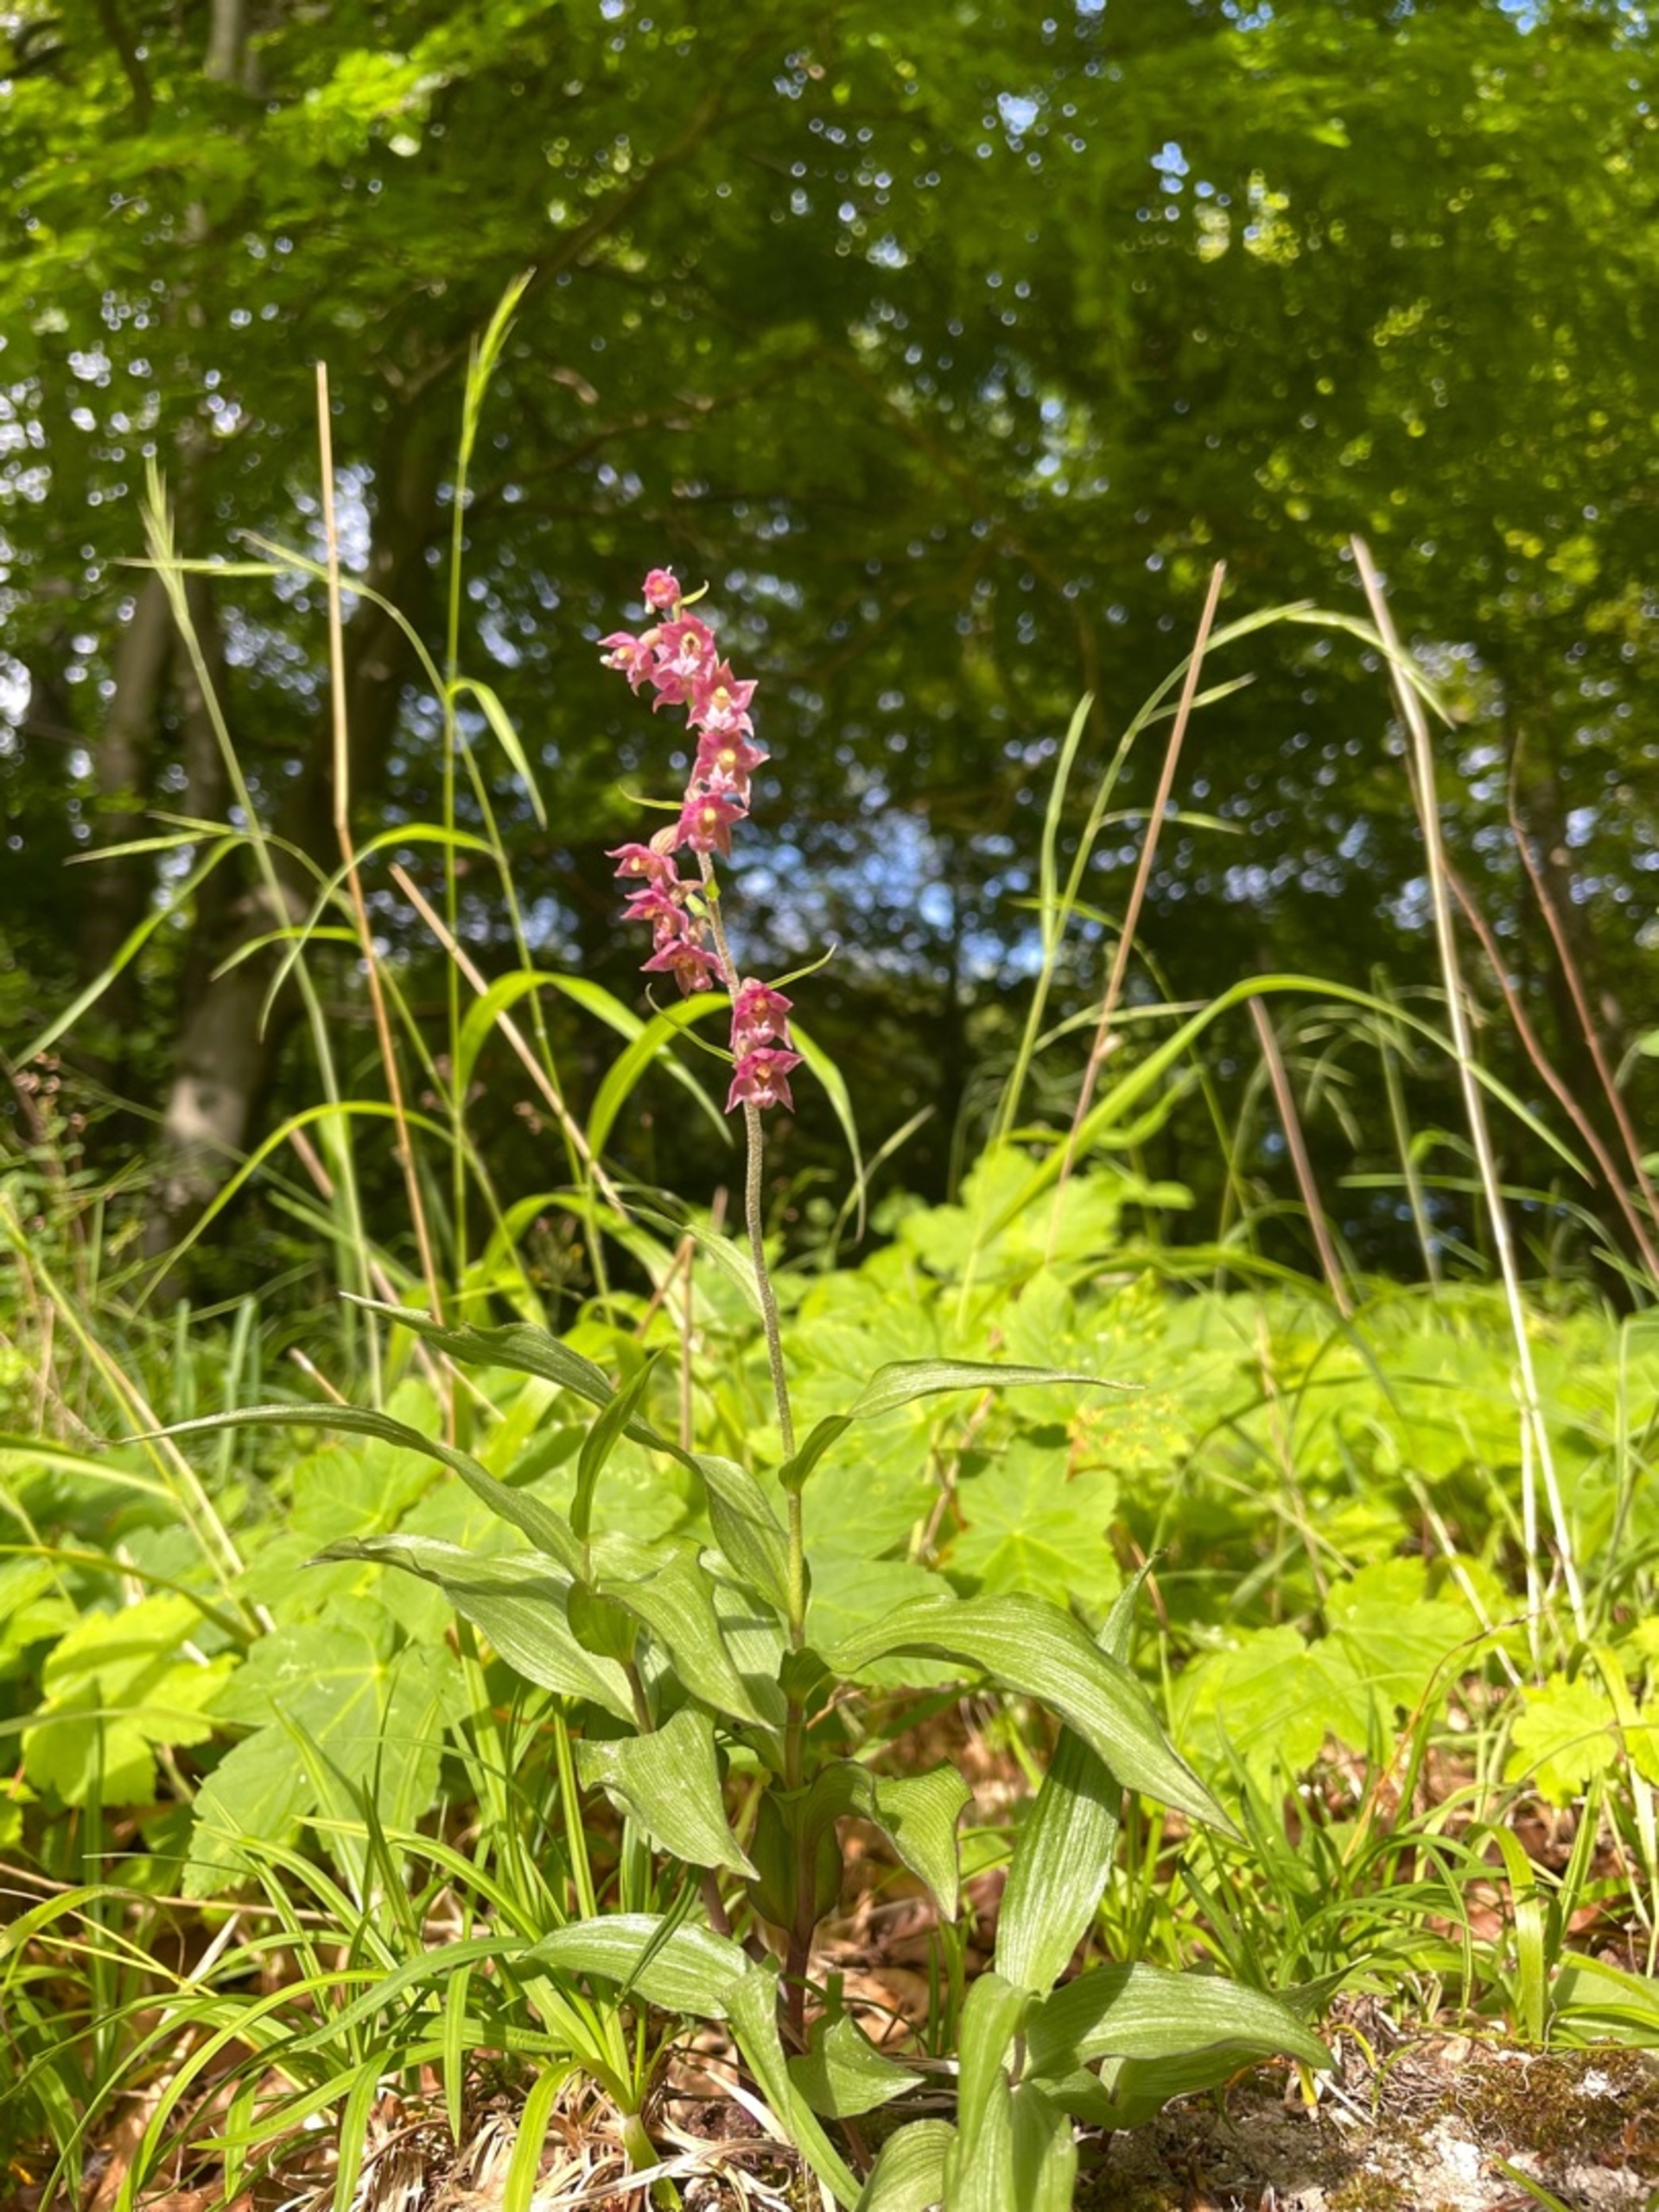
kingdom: Plantae
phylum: Tracheophyta
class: Liliopsida
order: Asparagales
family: Orchidaceae
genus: Epipactis
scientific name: Epipactis atrorubens
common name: Rød hullæbe
